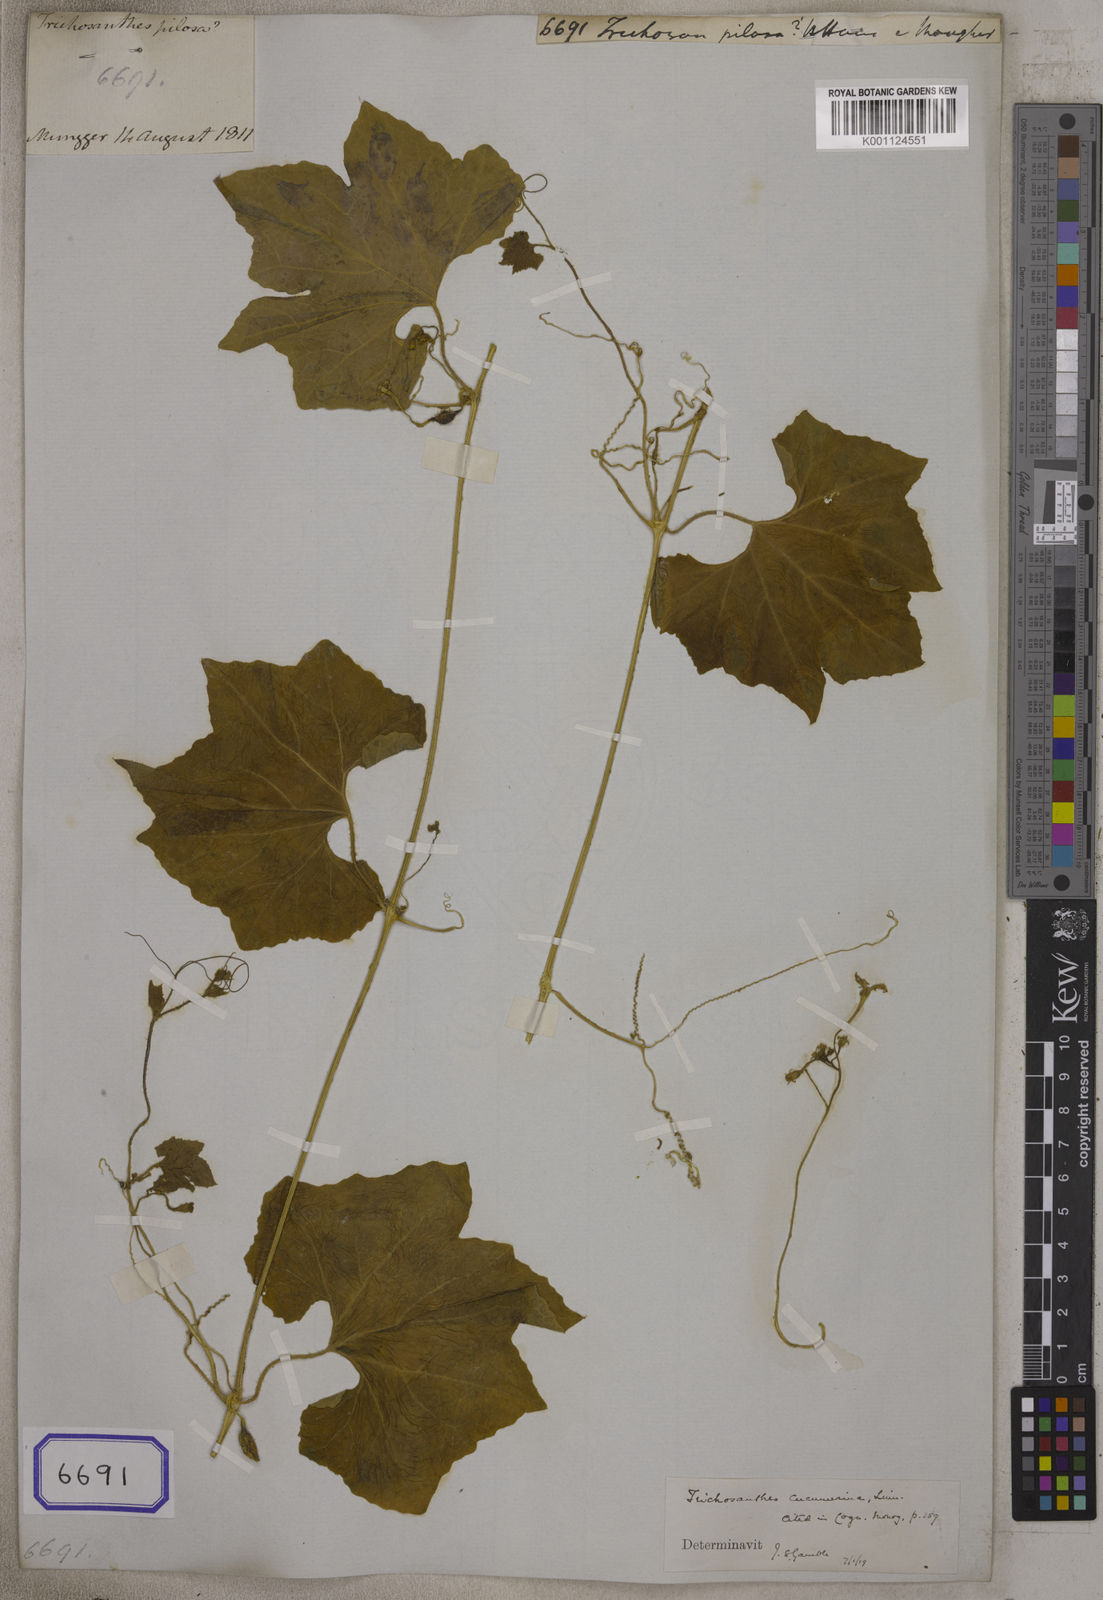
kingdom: Plantae
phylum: Tracheophyta
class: Magnoliopsida
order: Cucurbitales
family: Cucurbitaceae
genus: Trichosanthes
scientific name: Trichosanthes
